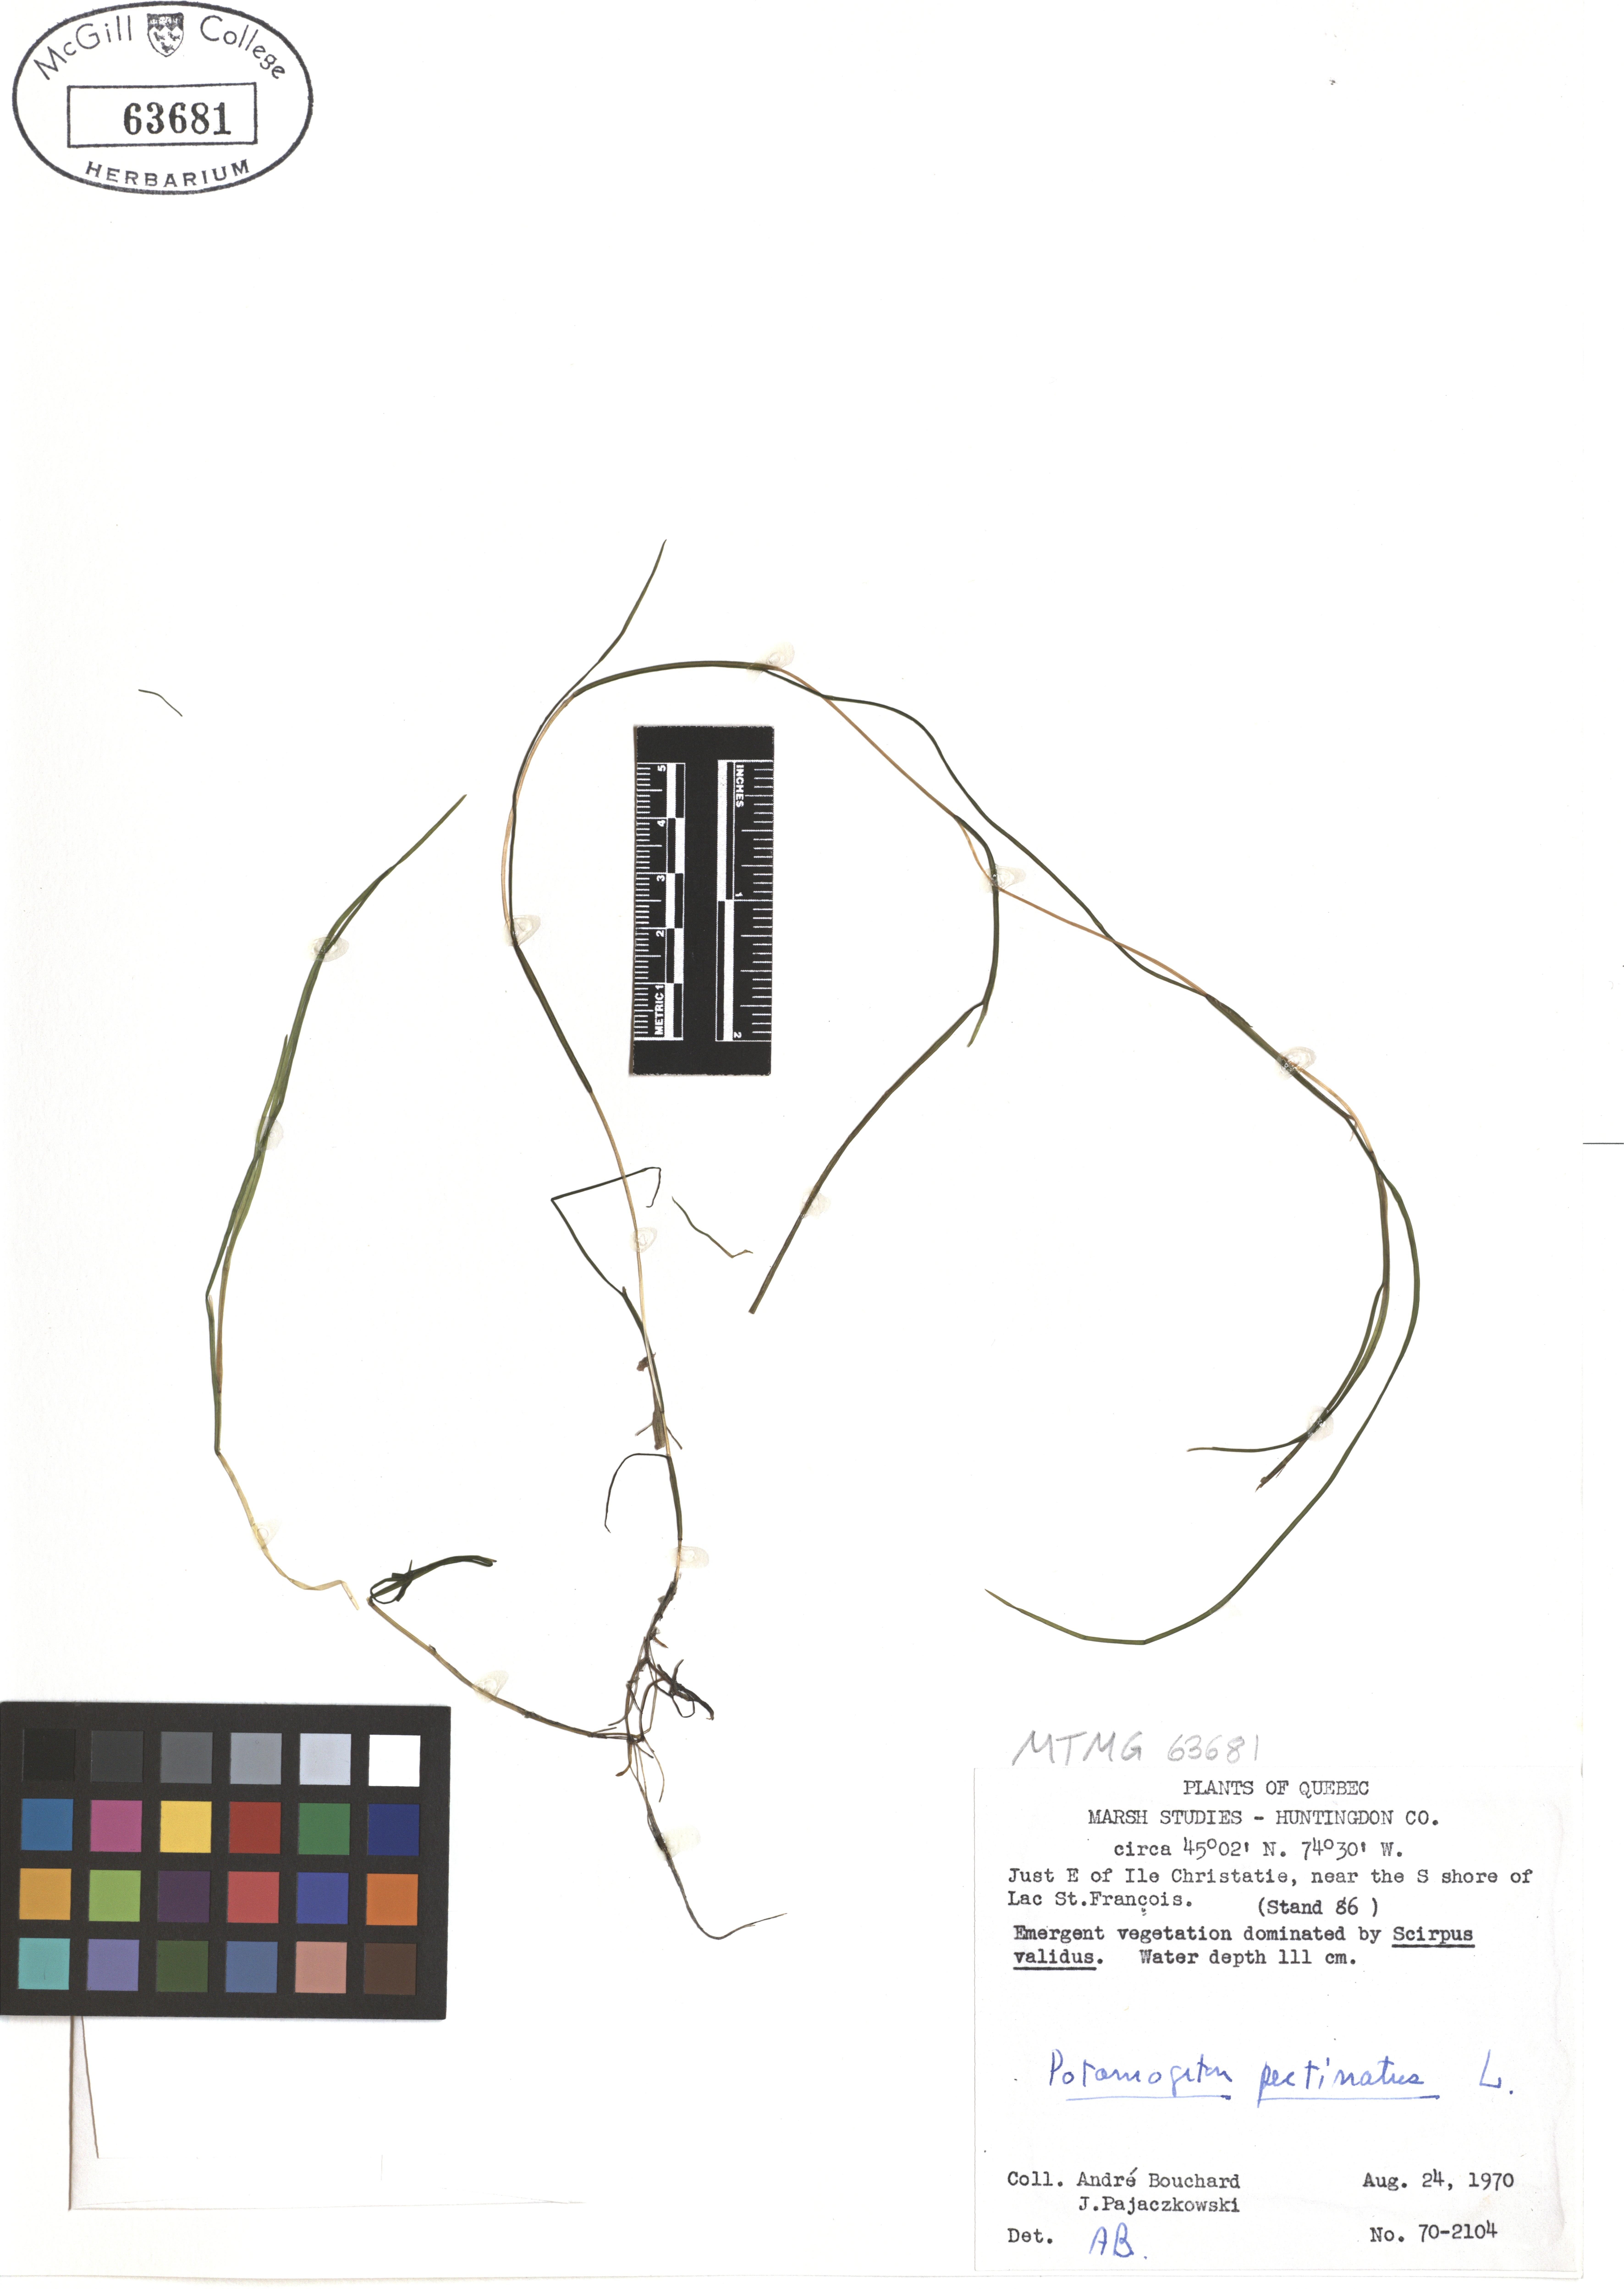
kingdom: Plantae
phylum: Tracheophyta
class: Liliopsida
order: Alismatales
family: Potamogetonaceae
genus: Stuckenia
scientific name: Stuckenia pectinata
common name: Sago pondweed
